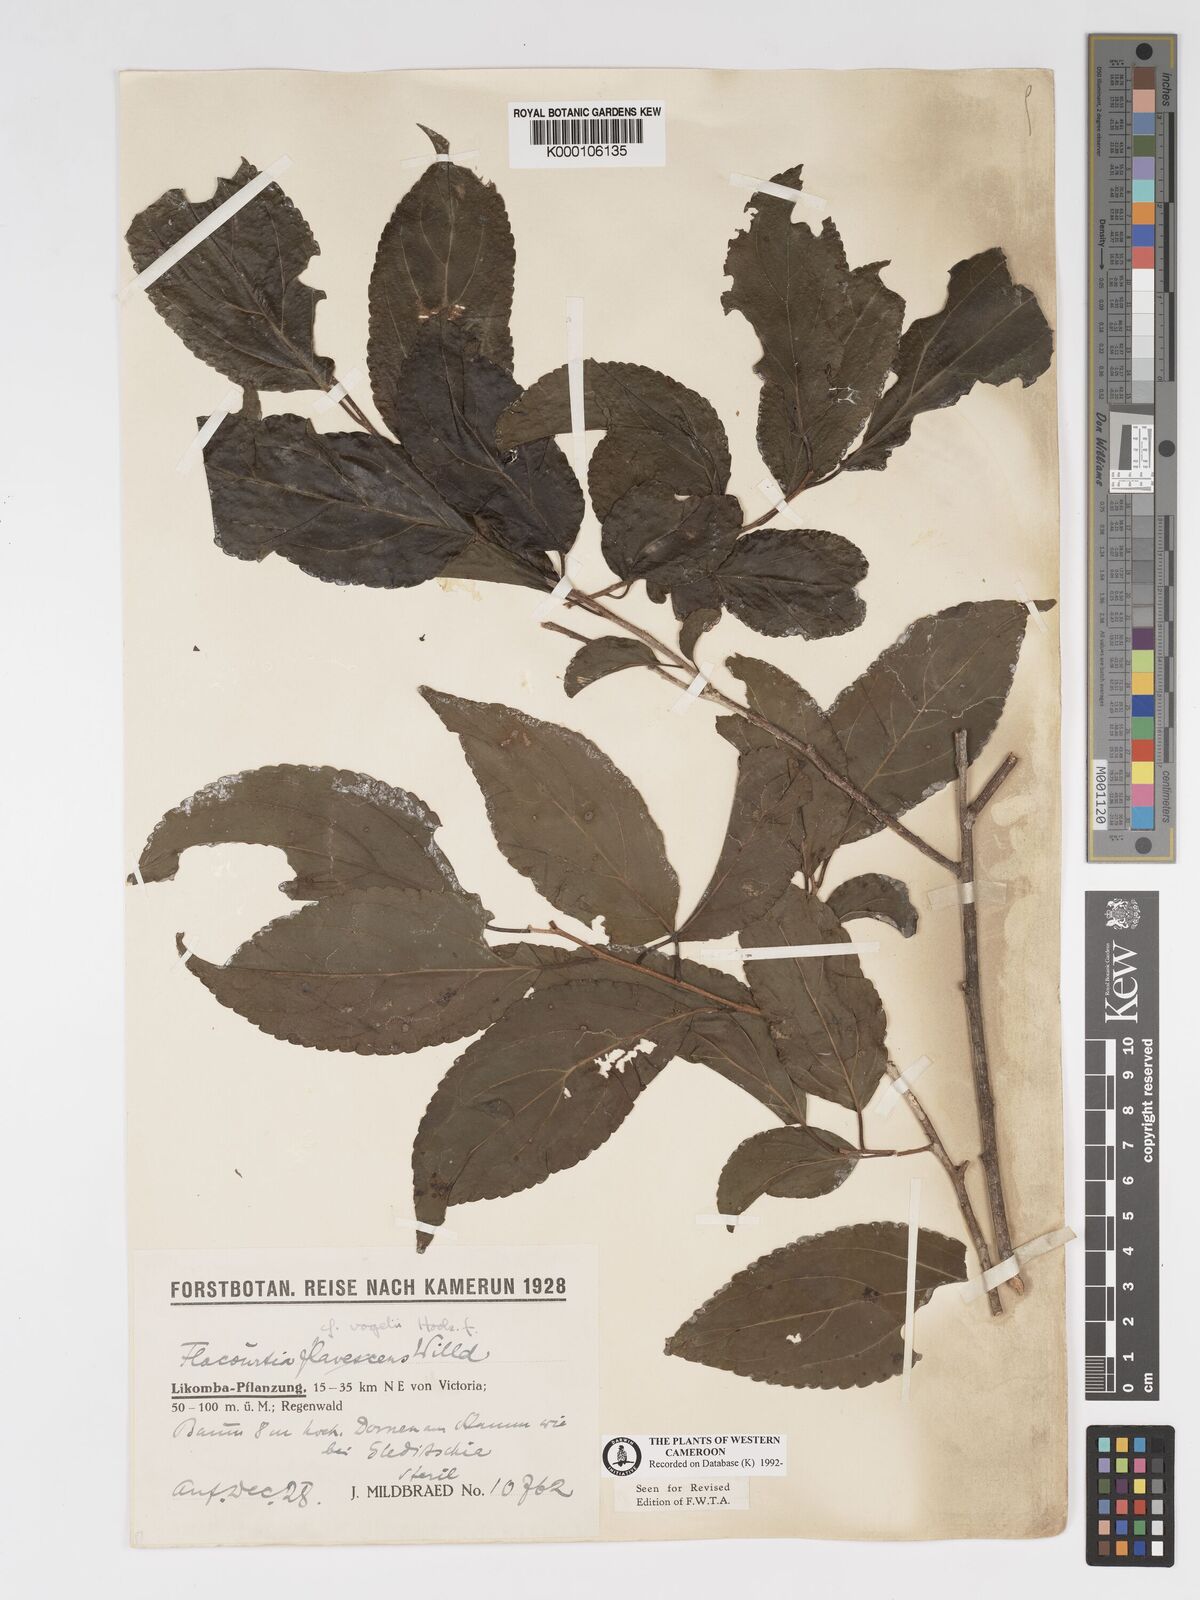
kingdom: Plantae
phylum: Tracheophyta
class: Magnoliopsida
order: Malpighiales
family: Salicaceae
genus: Flacourtia
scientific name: Flacourtia vogelii
